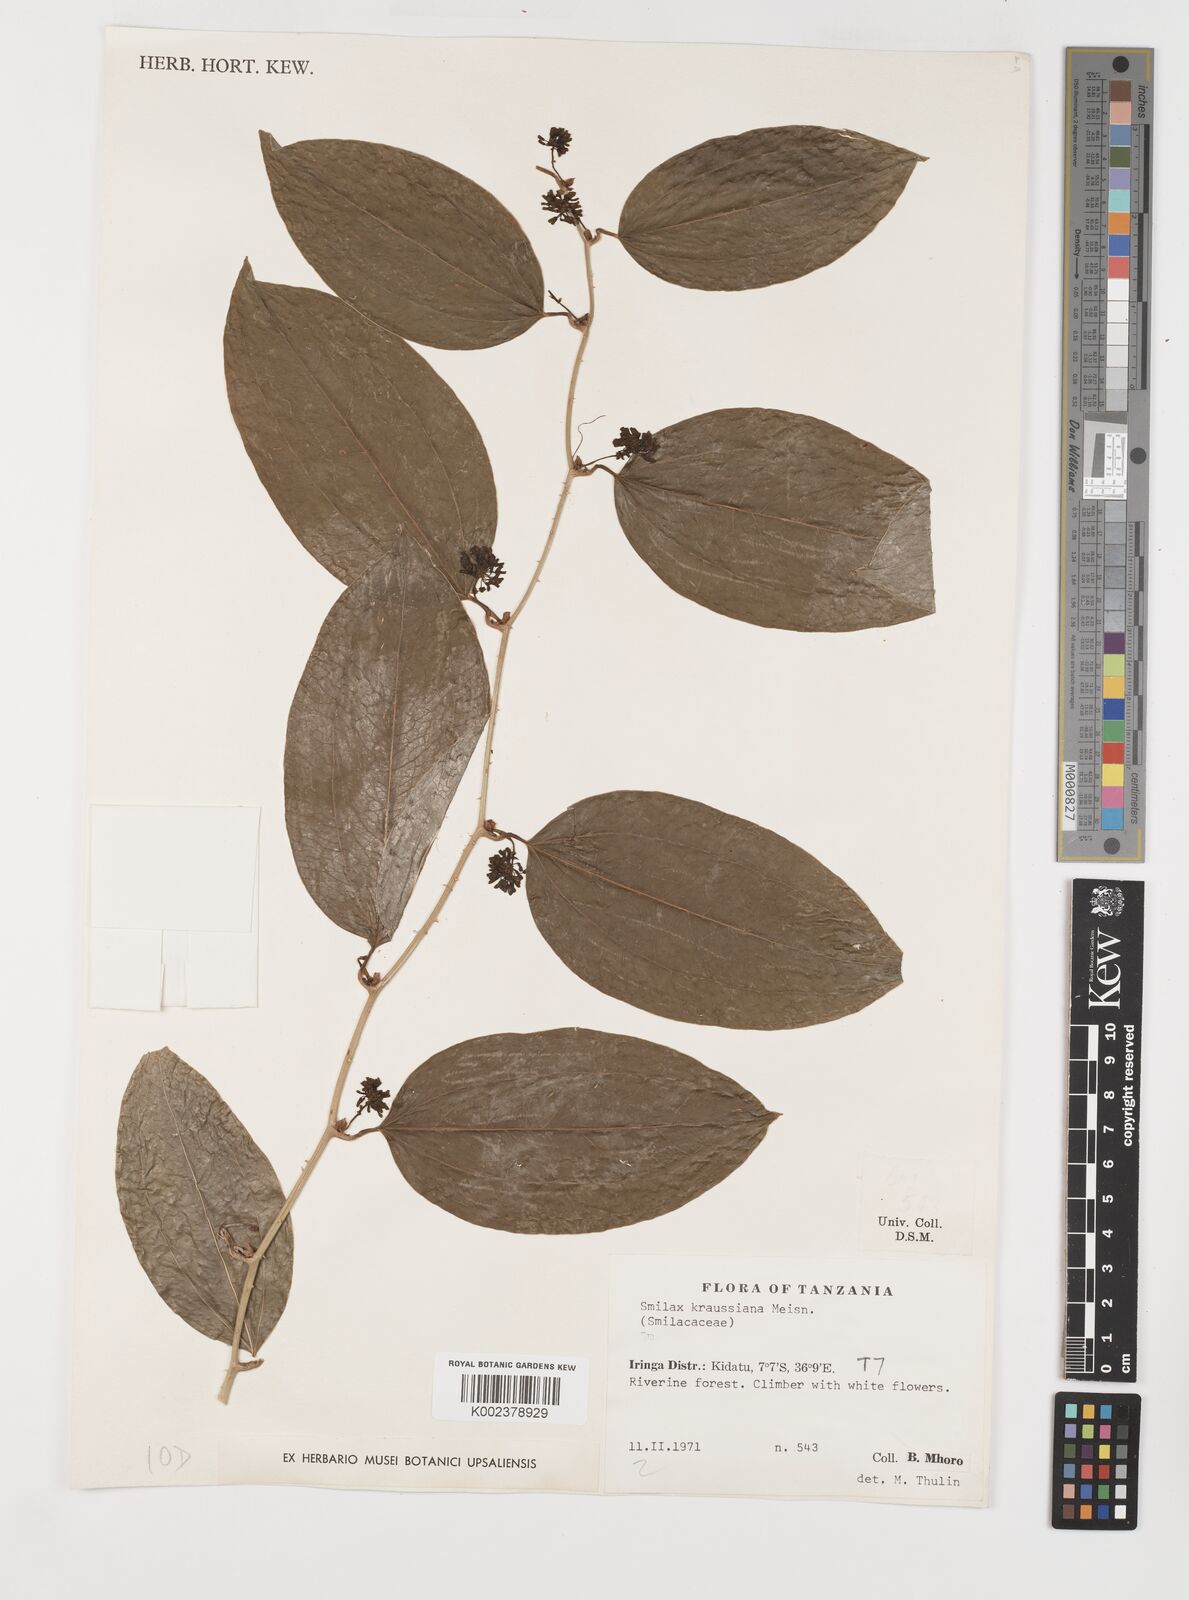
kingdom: Plantae
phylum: Tracheophyta
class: Liliopsida
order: Liliales
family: Smilacaceae
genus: Smilax
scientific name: Smilax anceps
